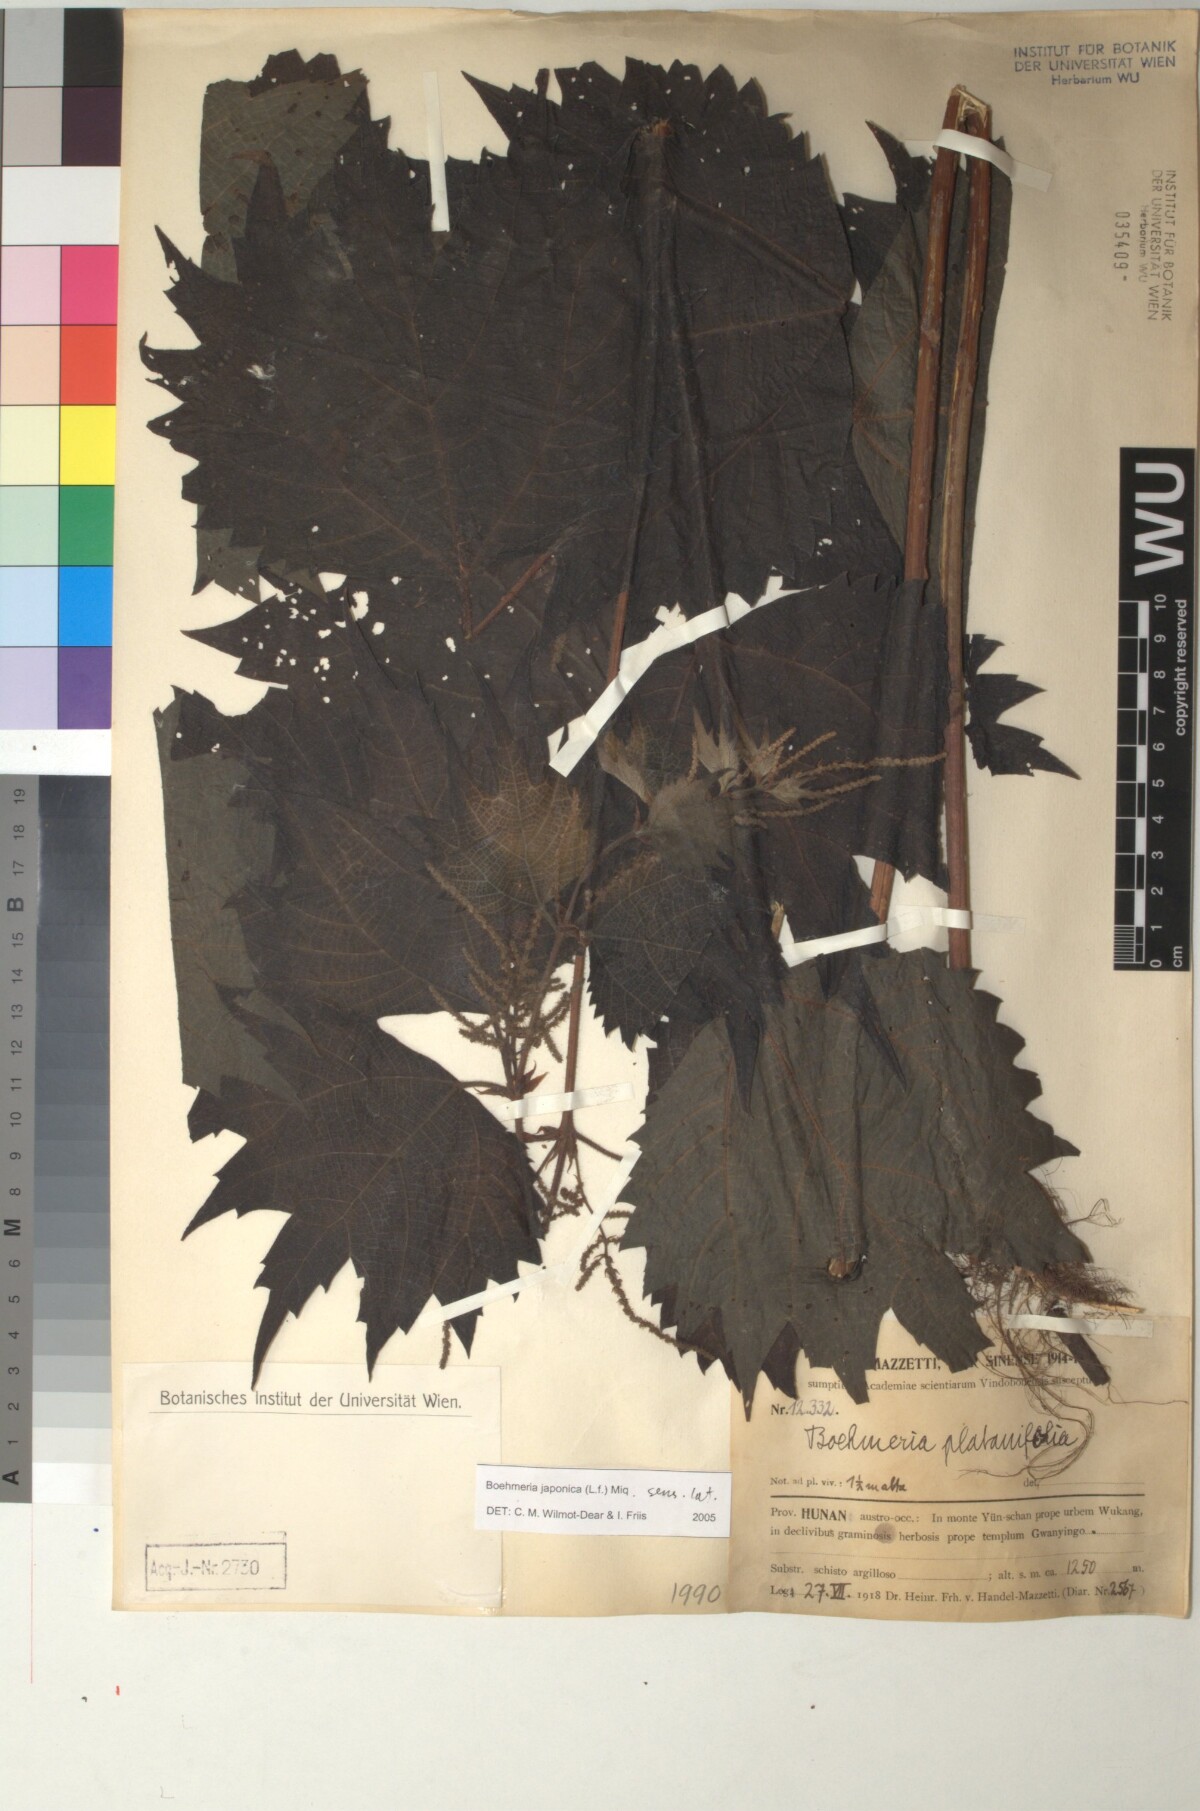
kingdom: Plantae
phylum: Tracheophyta
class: Magnoliopsida
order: Rosales
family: Urticaceae
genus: Boehmeria
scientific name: Boehmeria japonica
